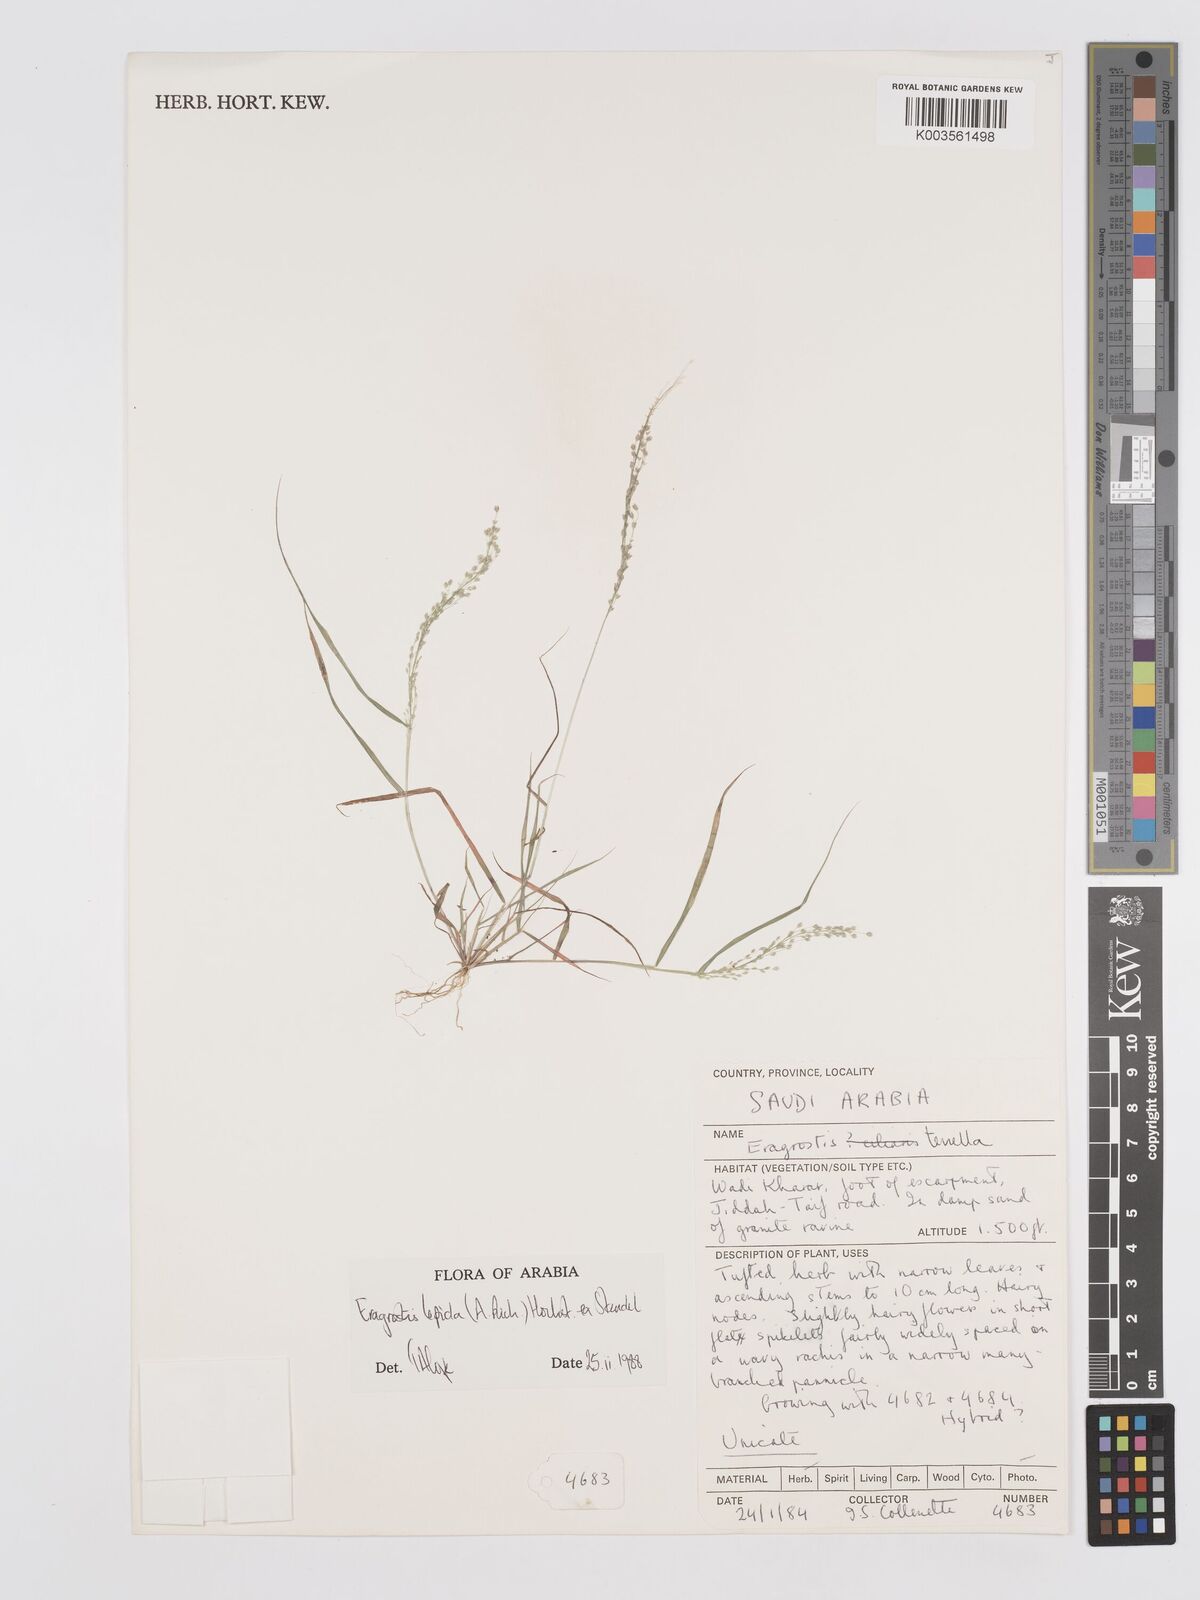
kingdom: Plantae
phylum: Tracheophyta
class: Liliopsida
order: Poales
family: Poaceae
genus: Eragrostis
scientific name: Eragrostis lepida
